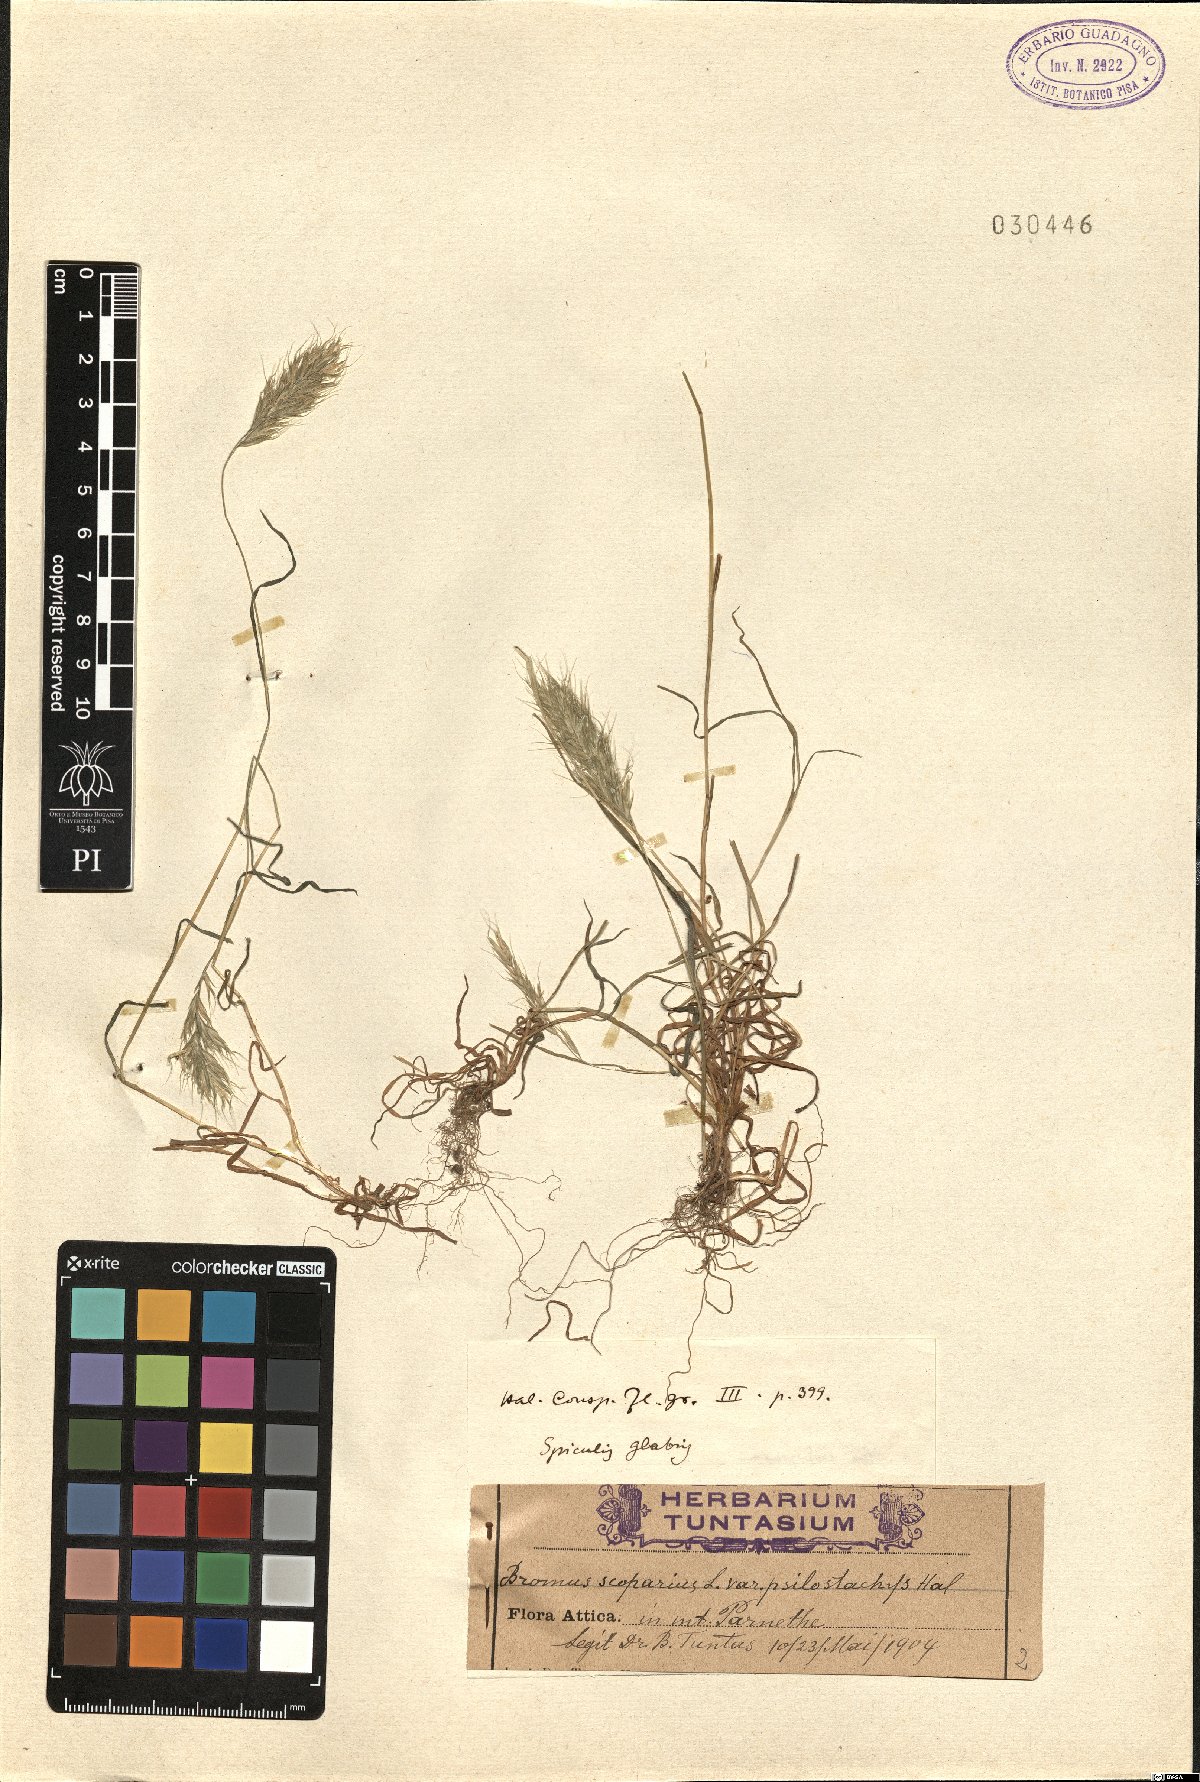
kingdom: Plantae
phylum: Tracheophyta
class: Liliopsida
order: Poales
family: Poaceae
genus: Bromus
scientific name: Bromus scoparius
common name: Broom brome
